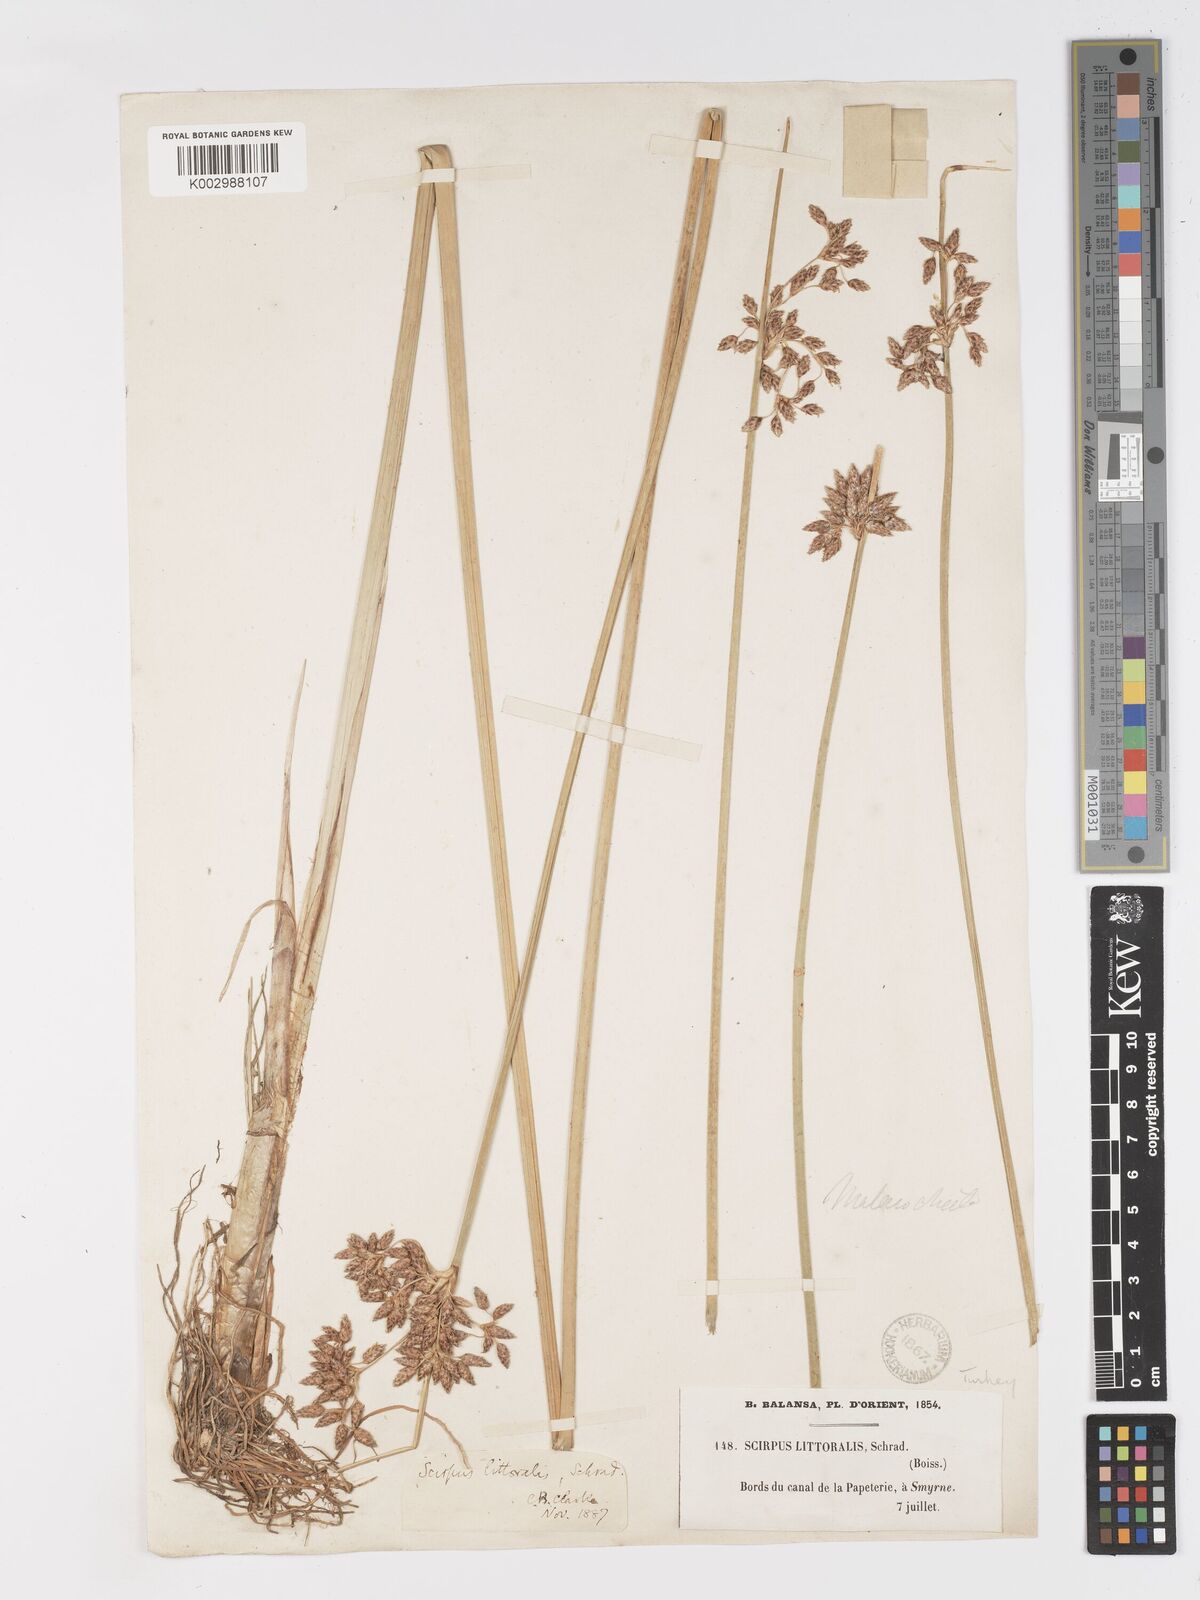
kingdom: Plantae
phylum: Tracheophyta
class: Liliopsida
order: Poales
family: Cyperaceae
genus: Schoenoplectus
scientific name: Schoenoplectus litoralis
